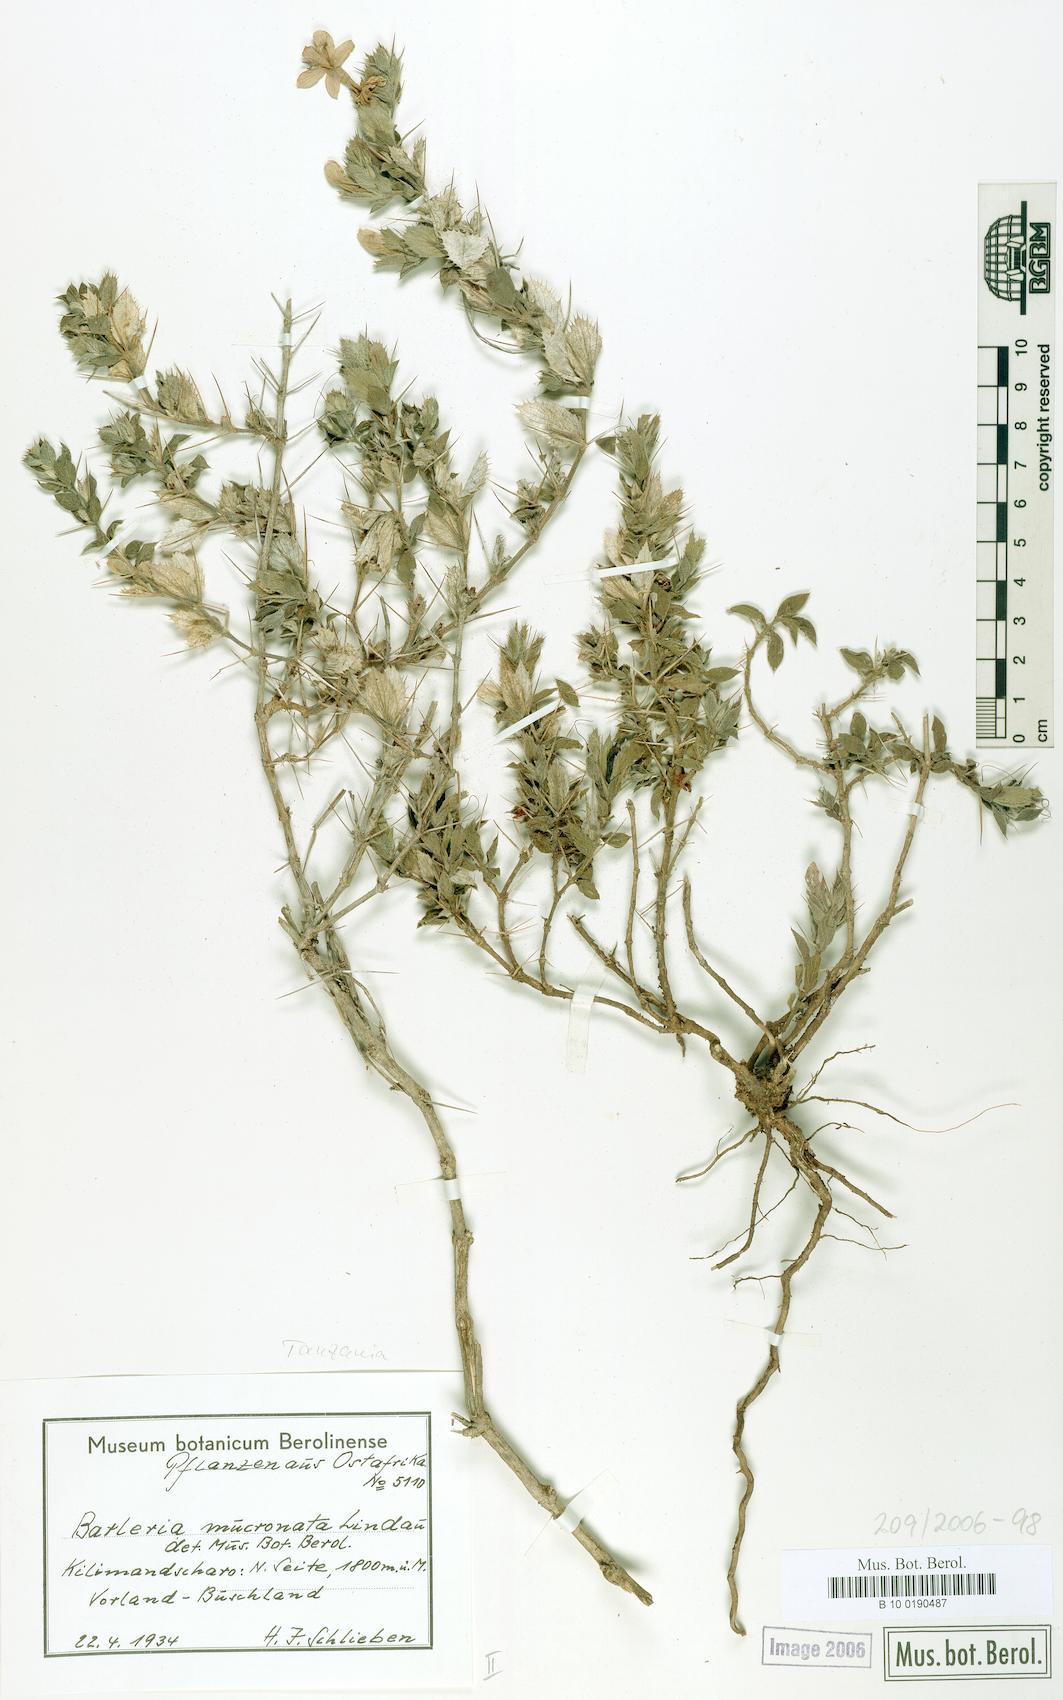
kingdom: Plantae
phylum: Tracheophyta
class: Magnoliopsida
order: Lamiales
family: Acanthaceae
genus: Barleria
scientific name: Barleria grandicalyx
